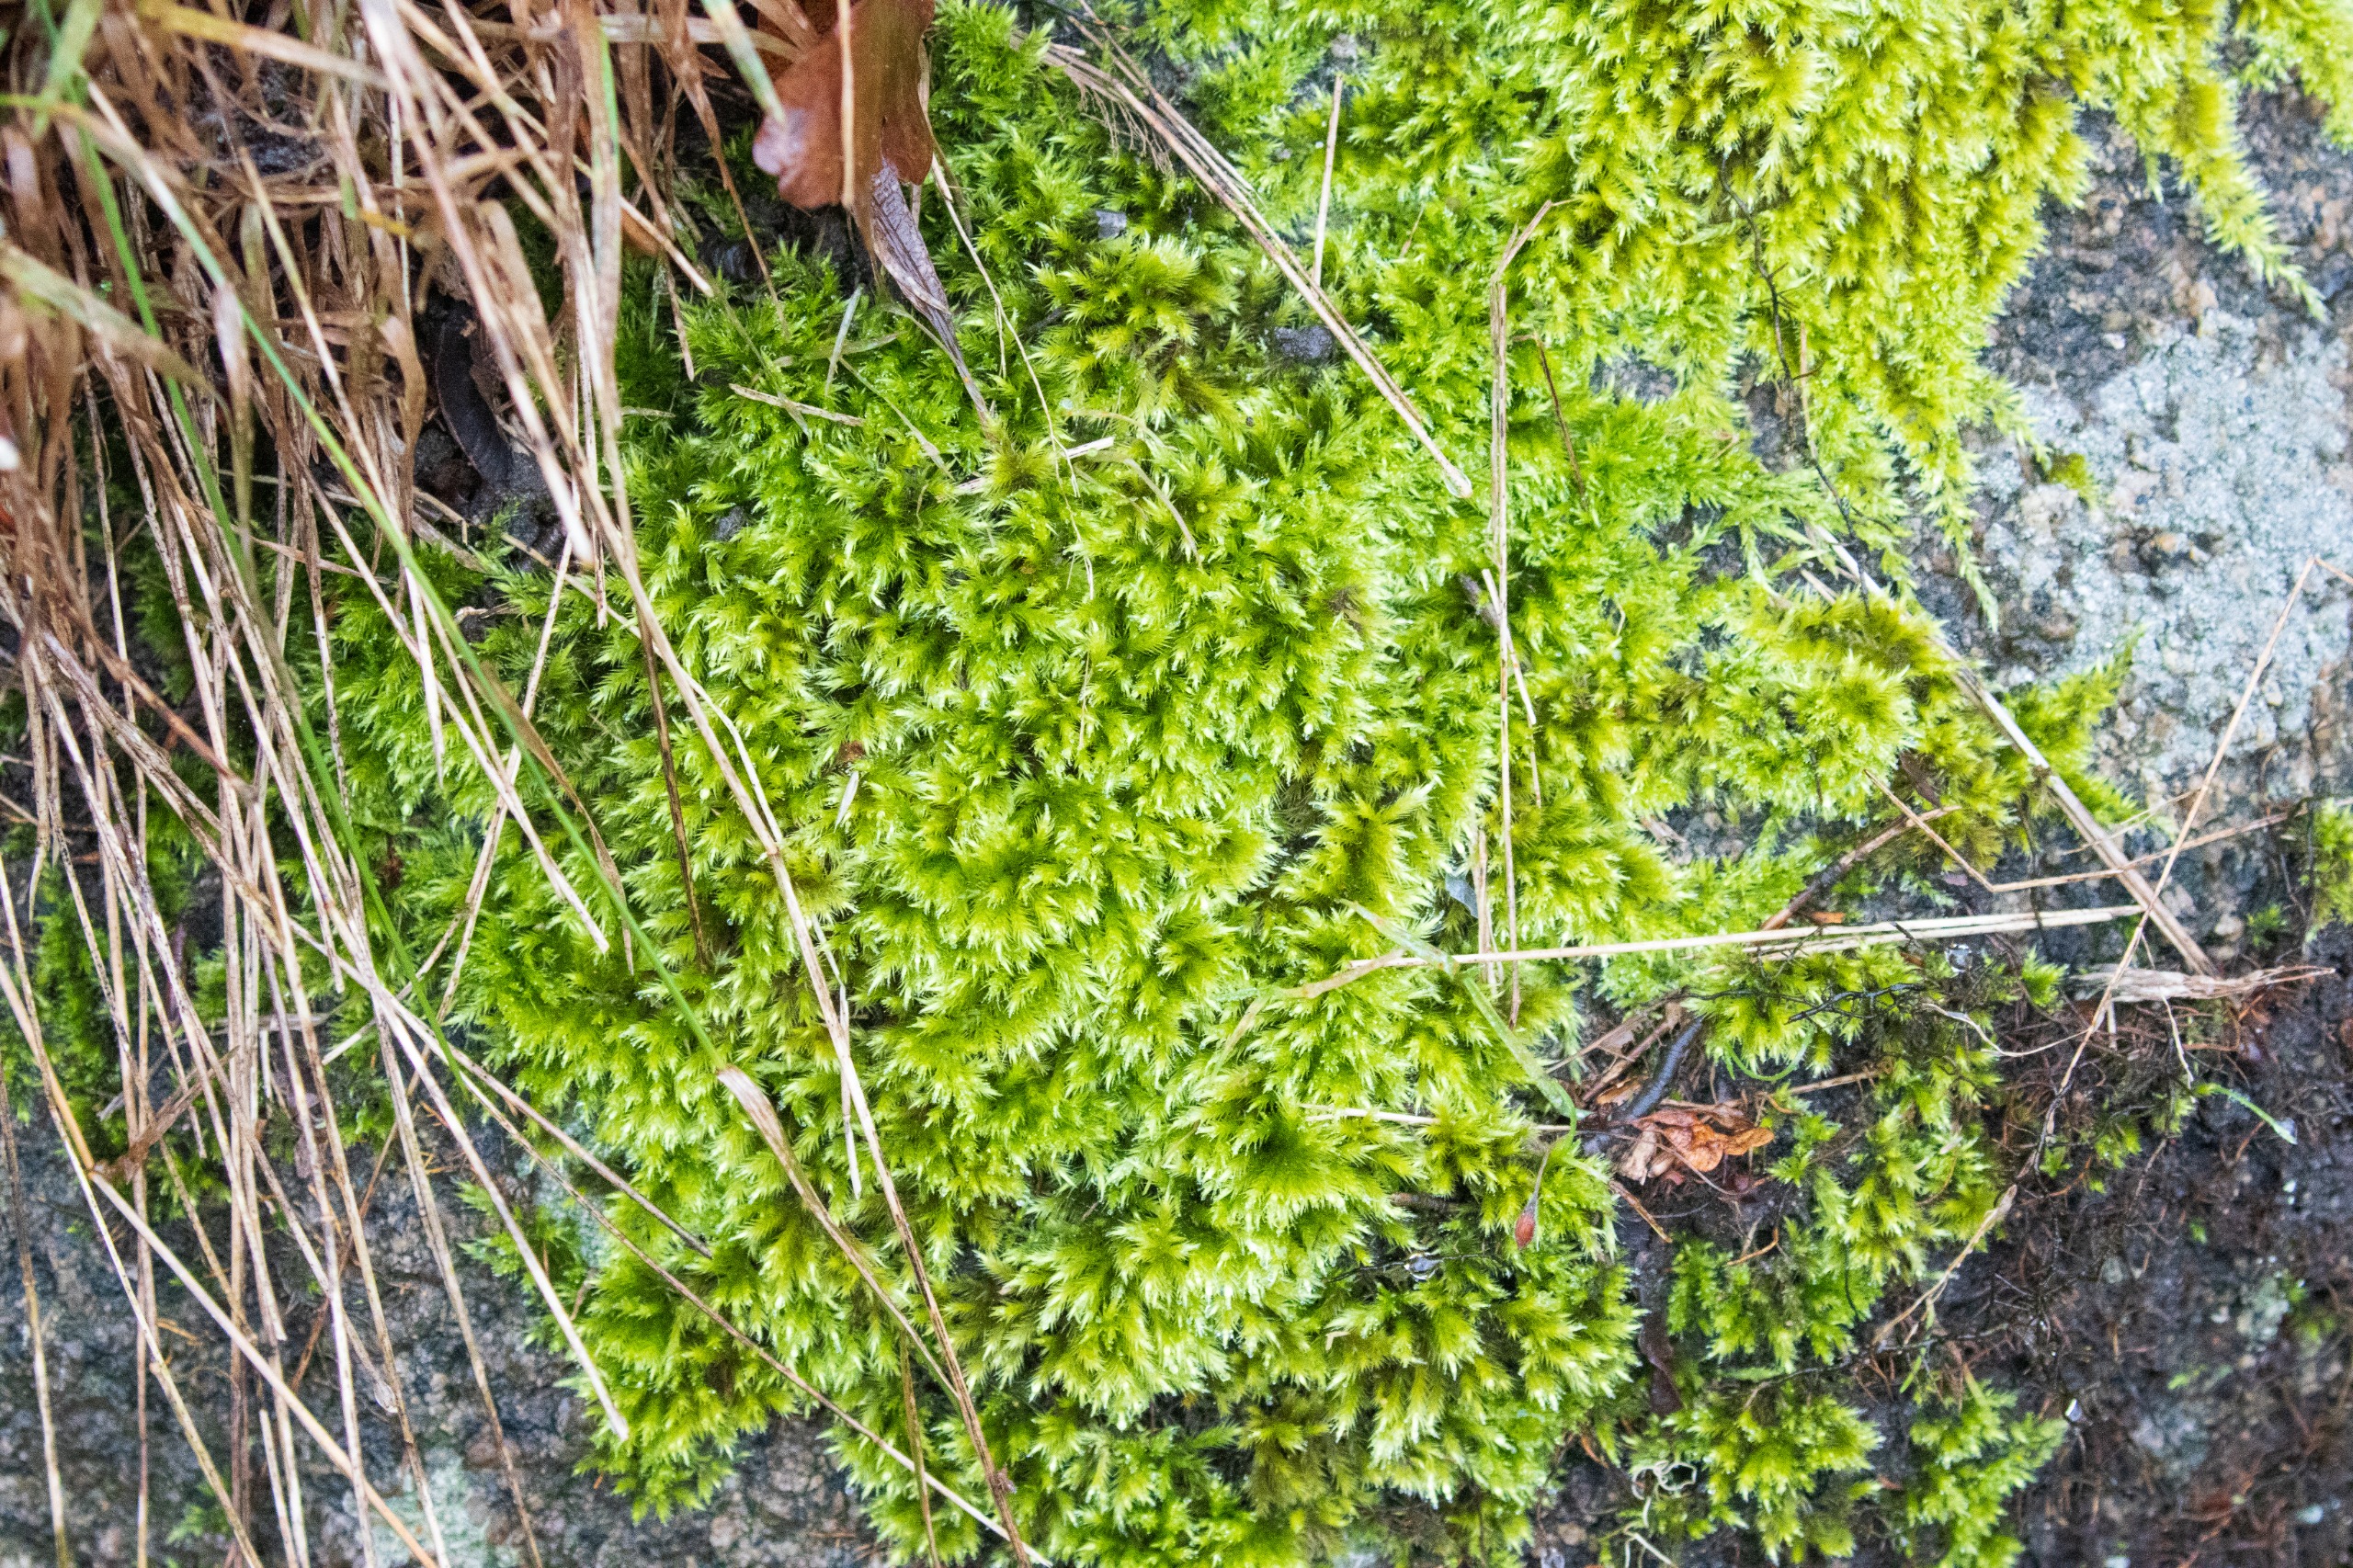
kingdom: Plantae
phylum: Bryophyta
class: Bryopsida
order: Hypnales
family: Brachytheciaceae
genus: Homalothecium
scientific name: Homalothecium sericeum
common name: Krybende silkemos
